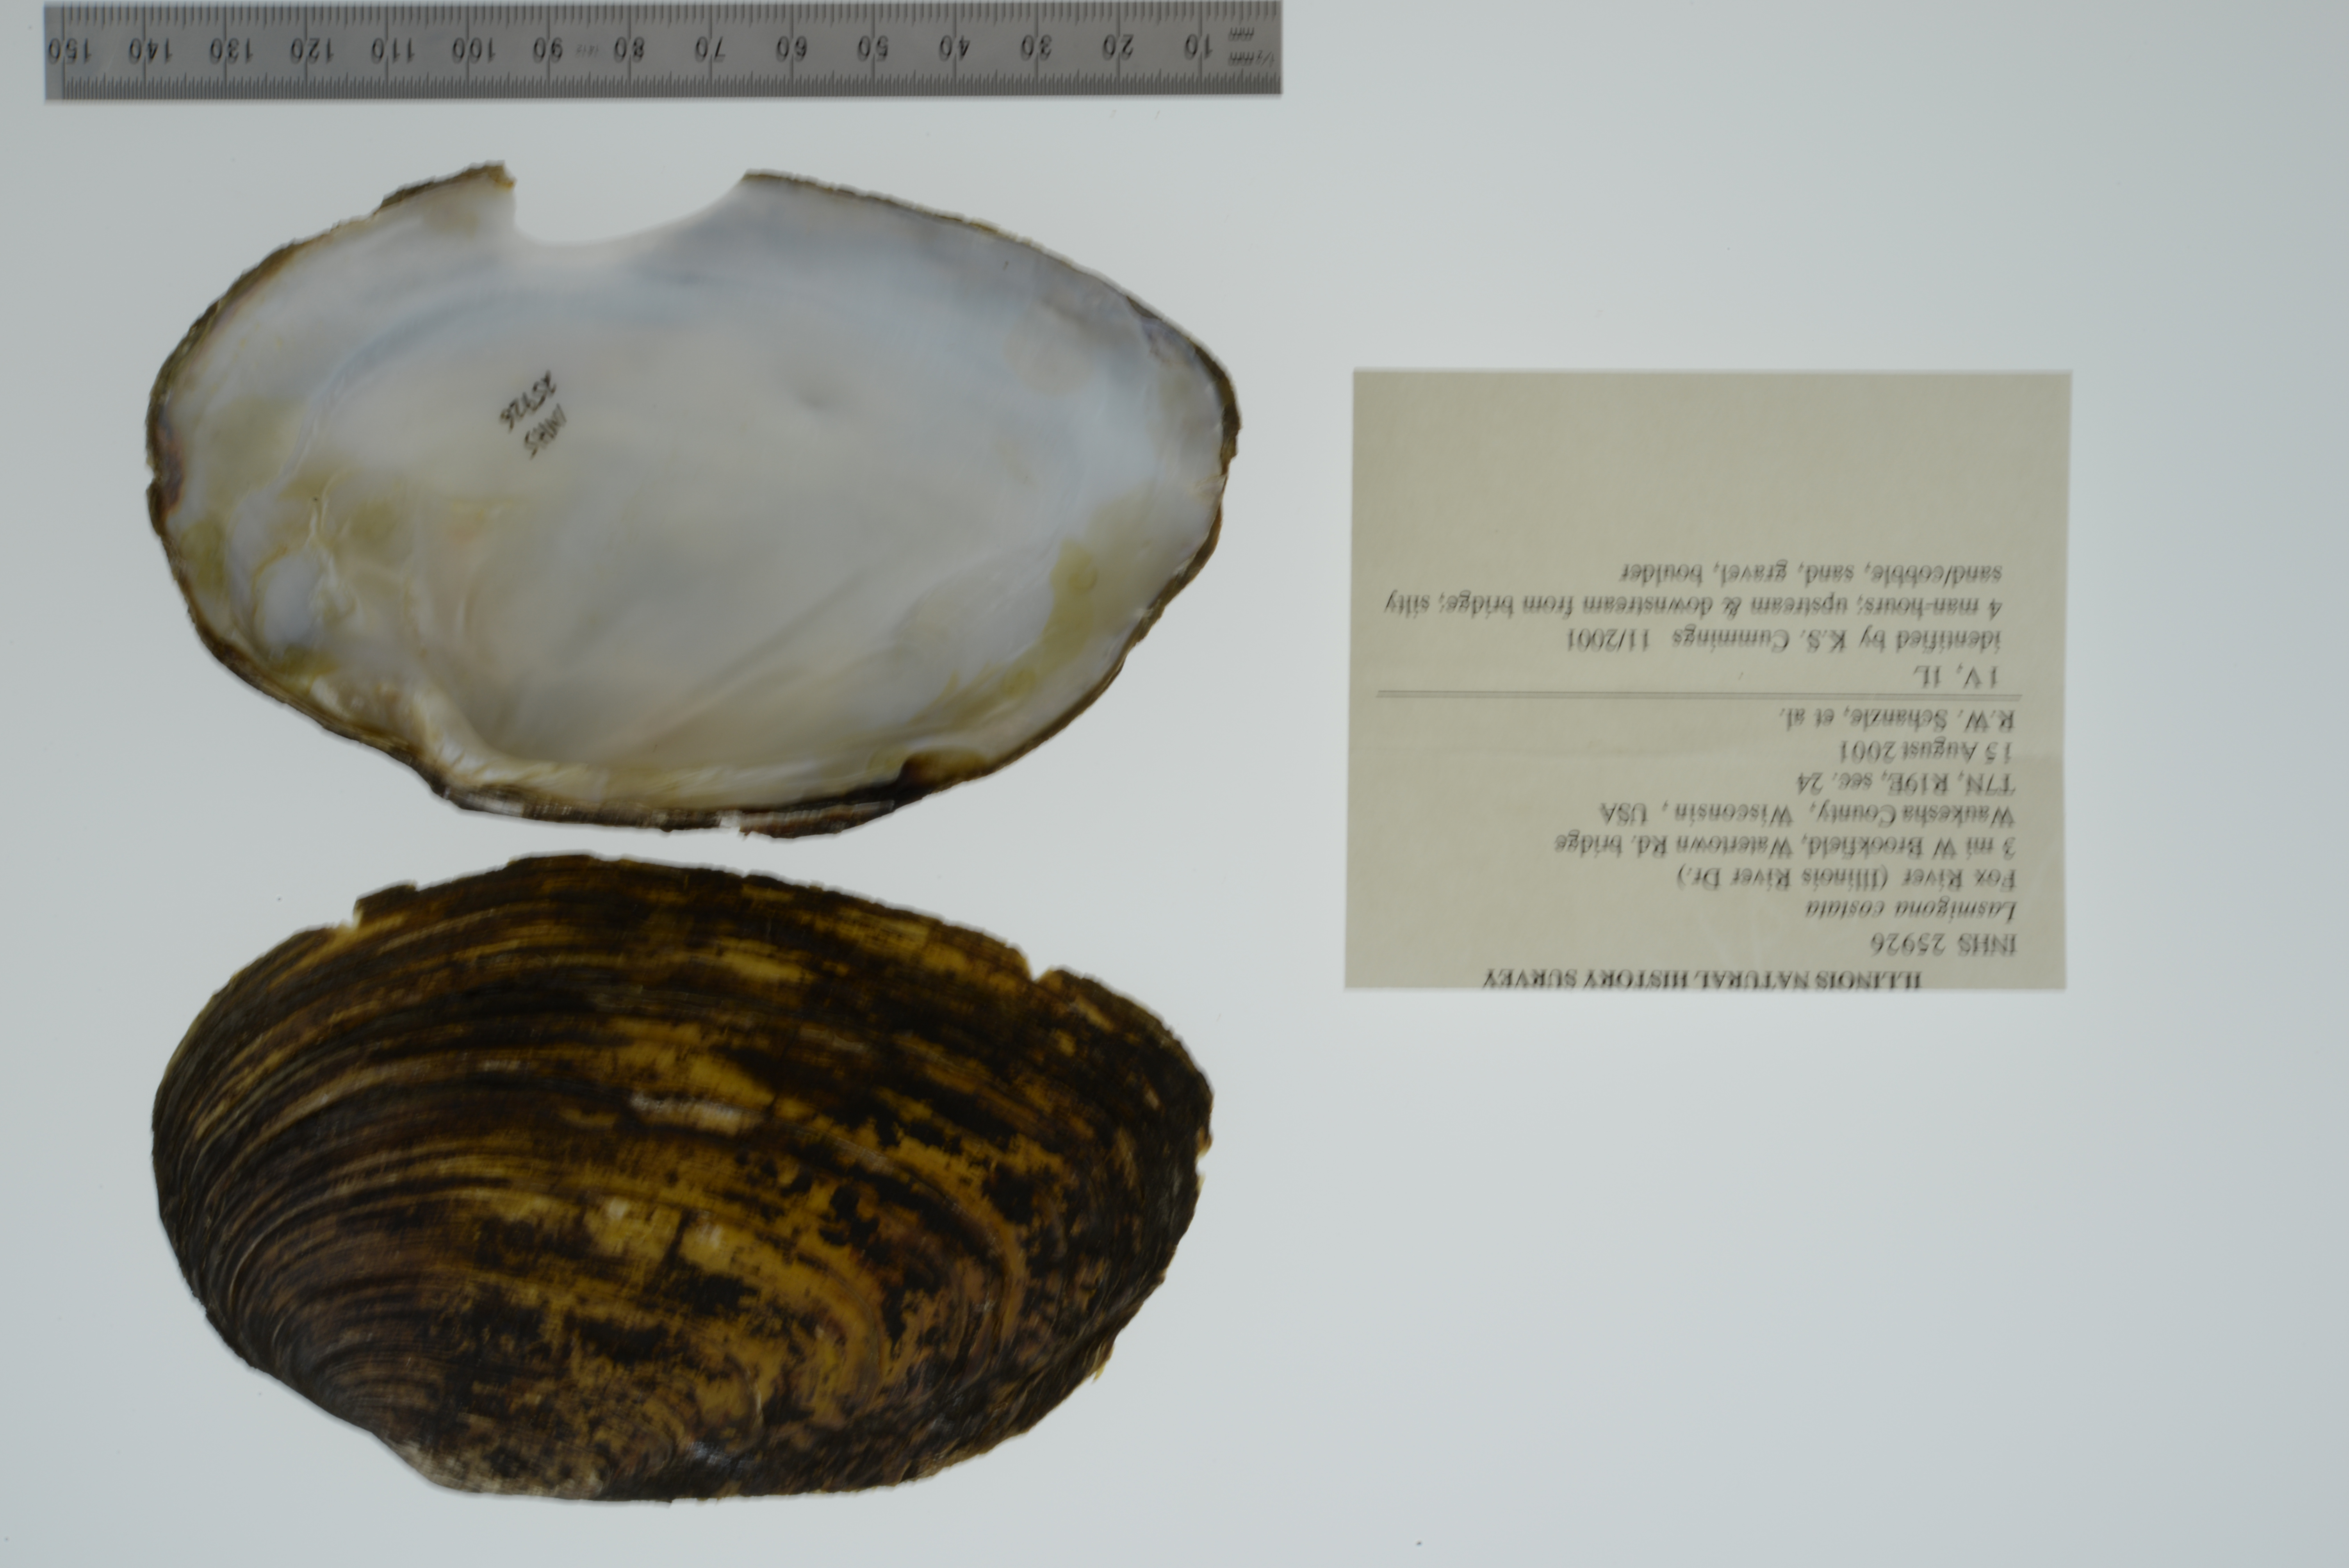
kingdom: Animalia
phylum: Mollusca
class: Bivalvia
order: Unionida
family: Unionidae
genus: Lasmigona
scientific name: Lasmigona costata
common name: Flutedshell
